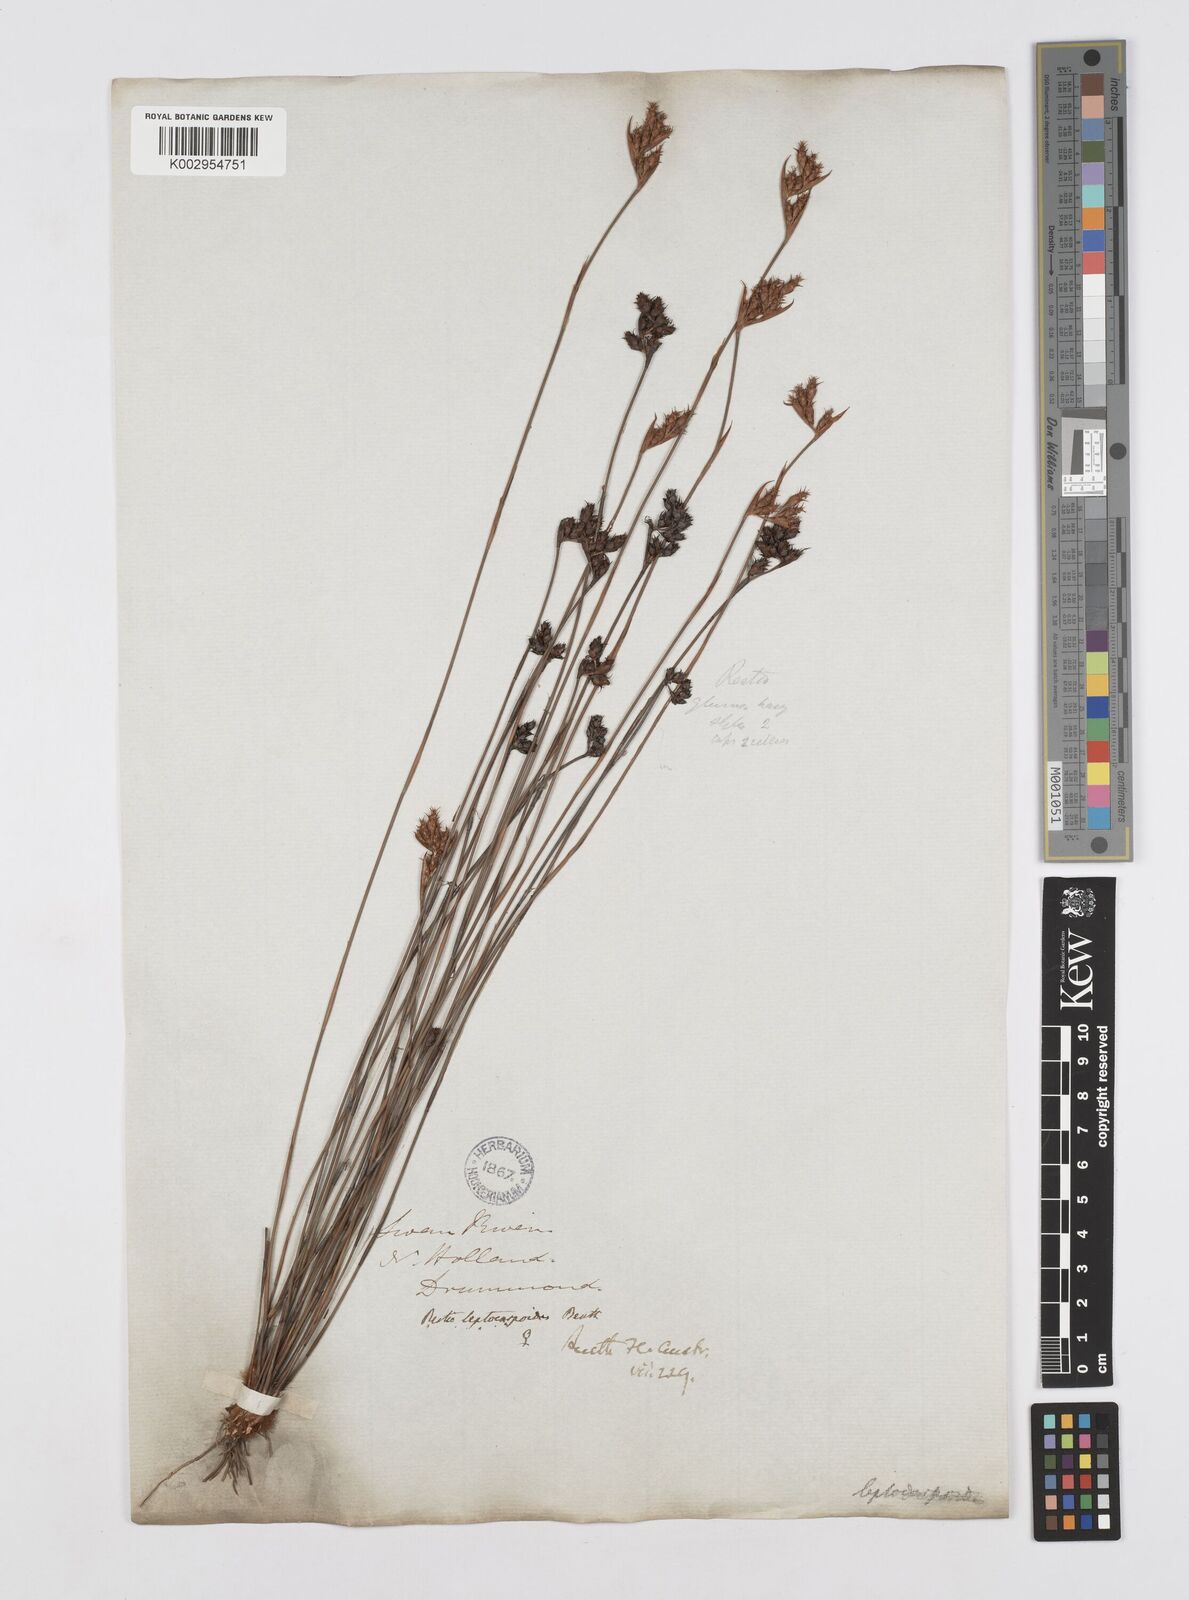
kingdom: Plantae
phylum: Tracheophyta
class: Liliopsida
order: Poales
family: Restionaceae
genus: Cytogonidium
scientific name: Cytogonidium leptocarpoides
